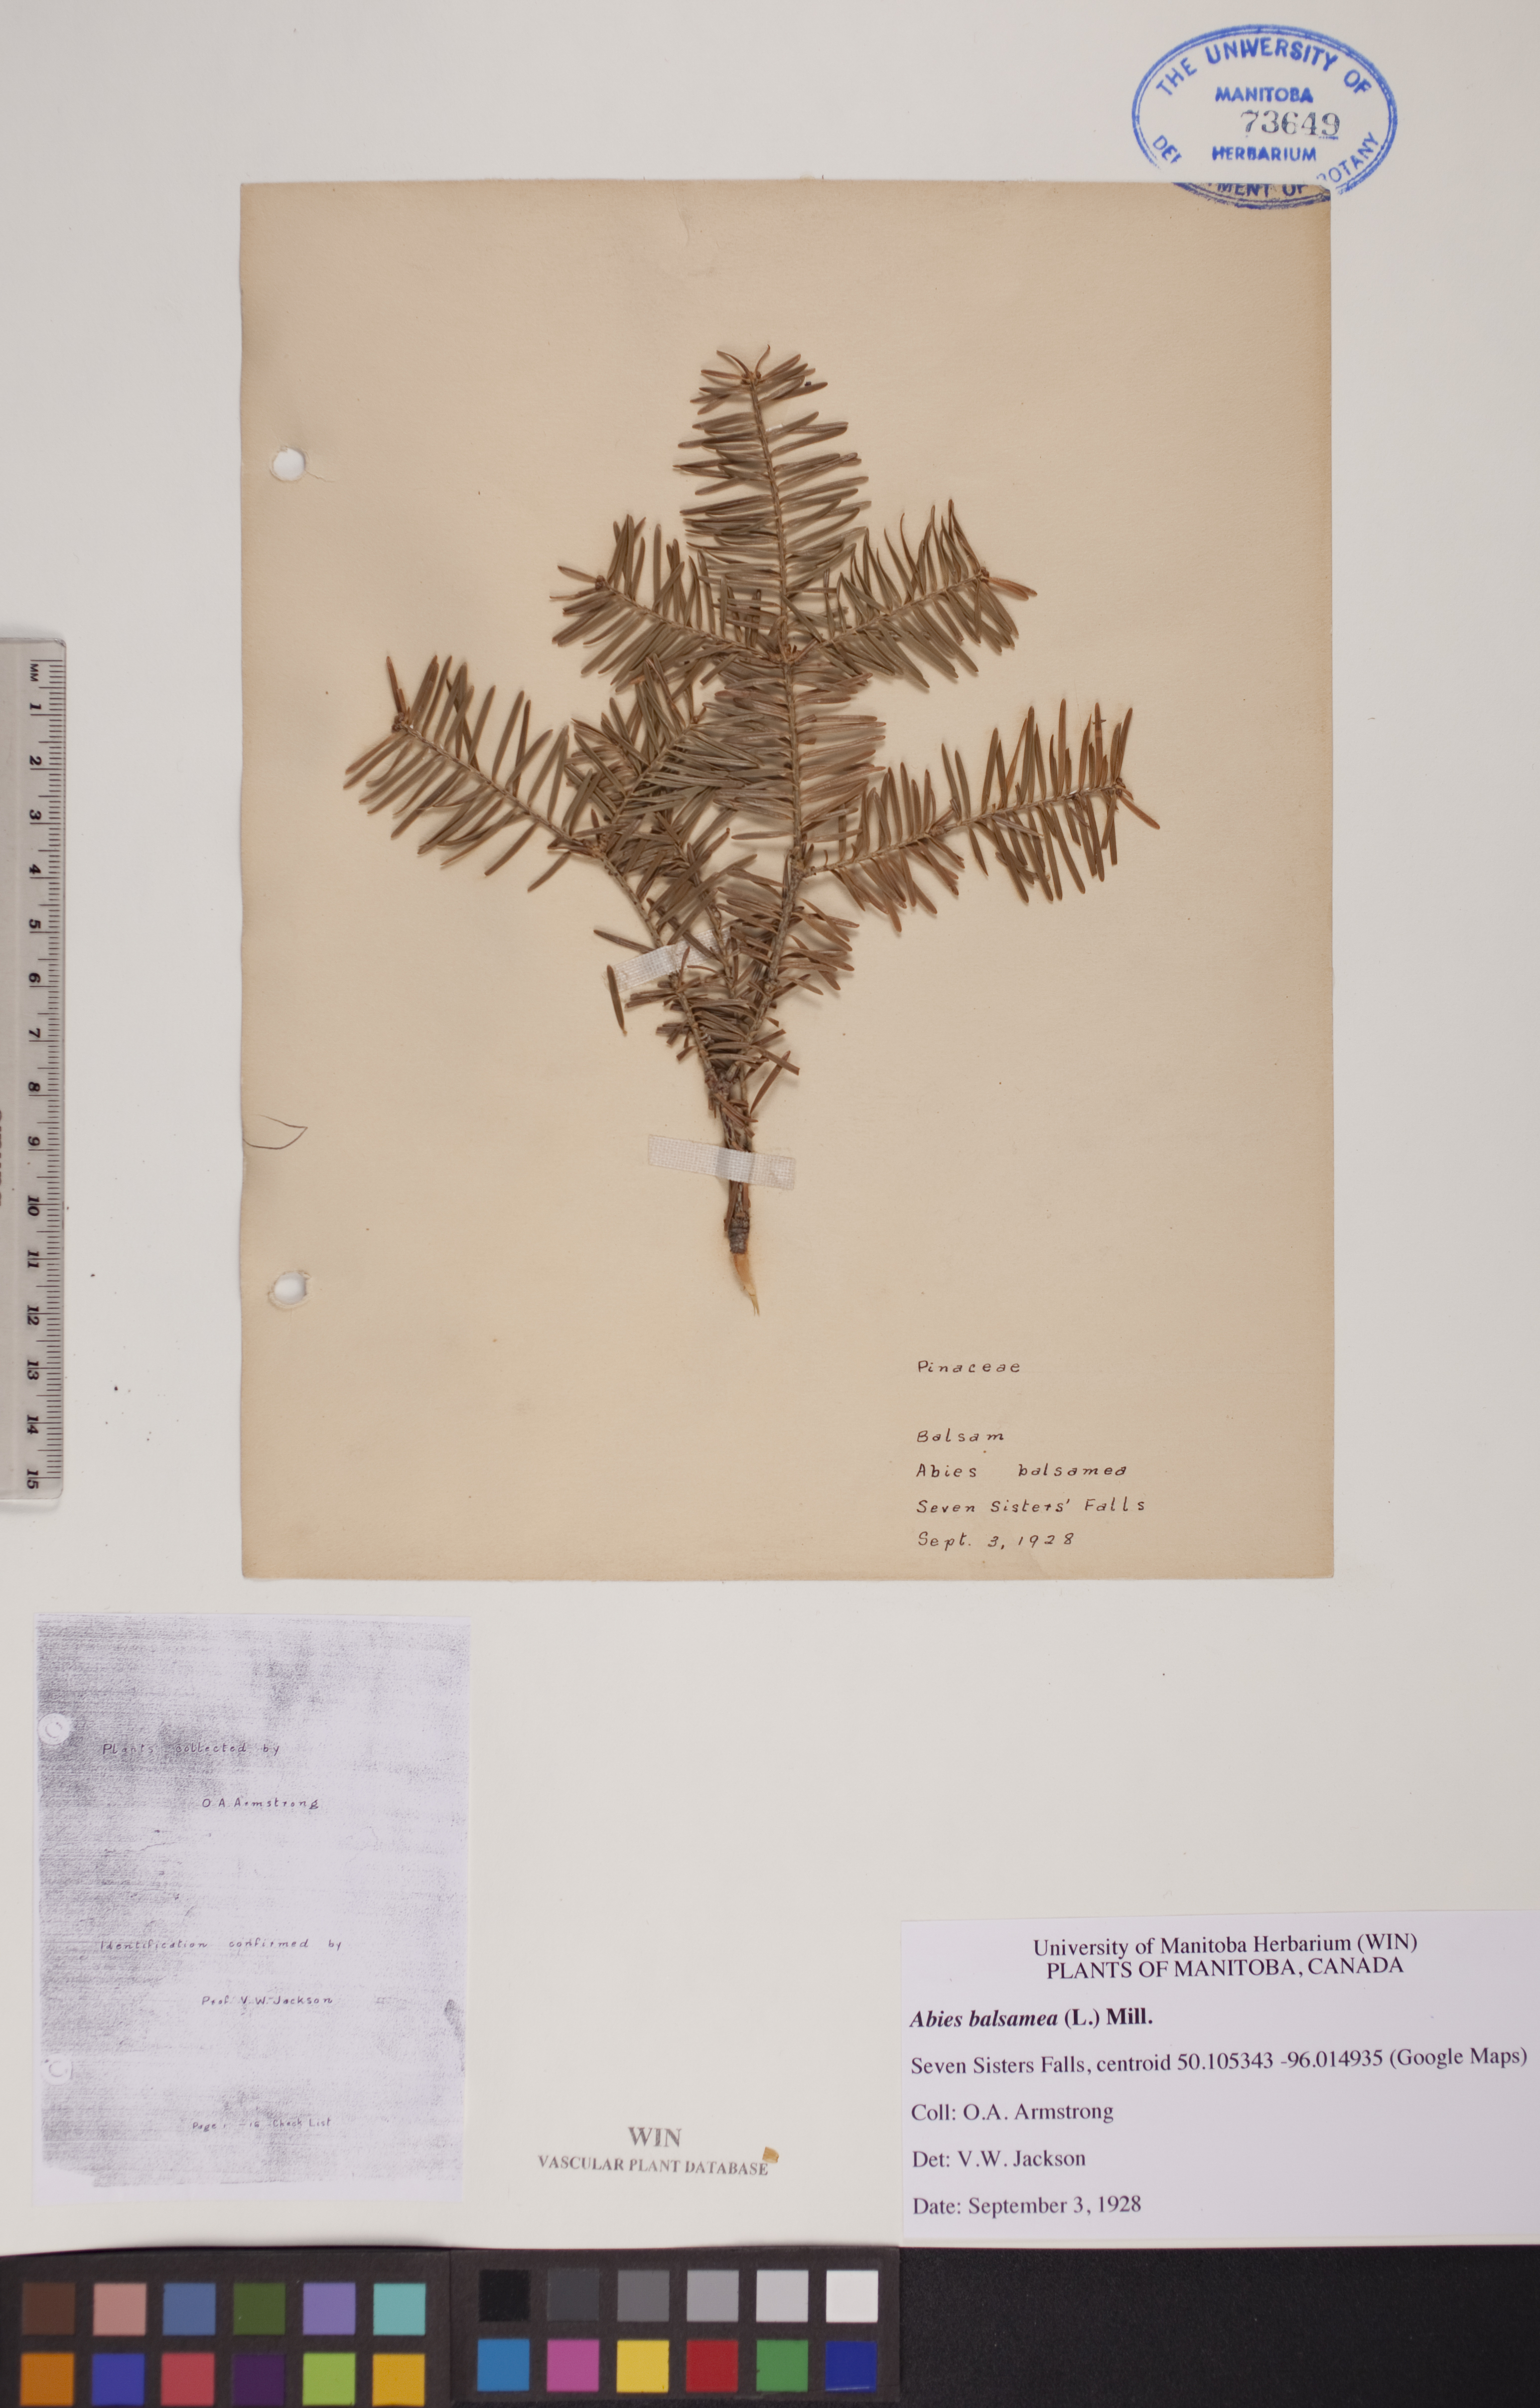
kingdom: Plantae
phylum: Tracheophyta
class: Pinopsida
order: Pinales
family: Pinaceae
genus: Abies
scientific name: Abies balsamea
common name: Balsam fir
